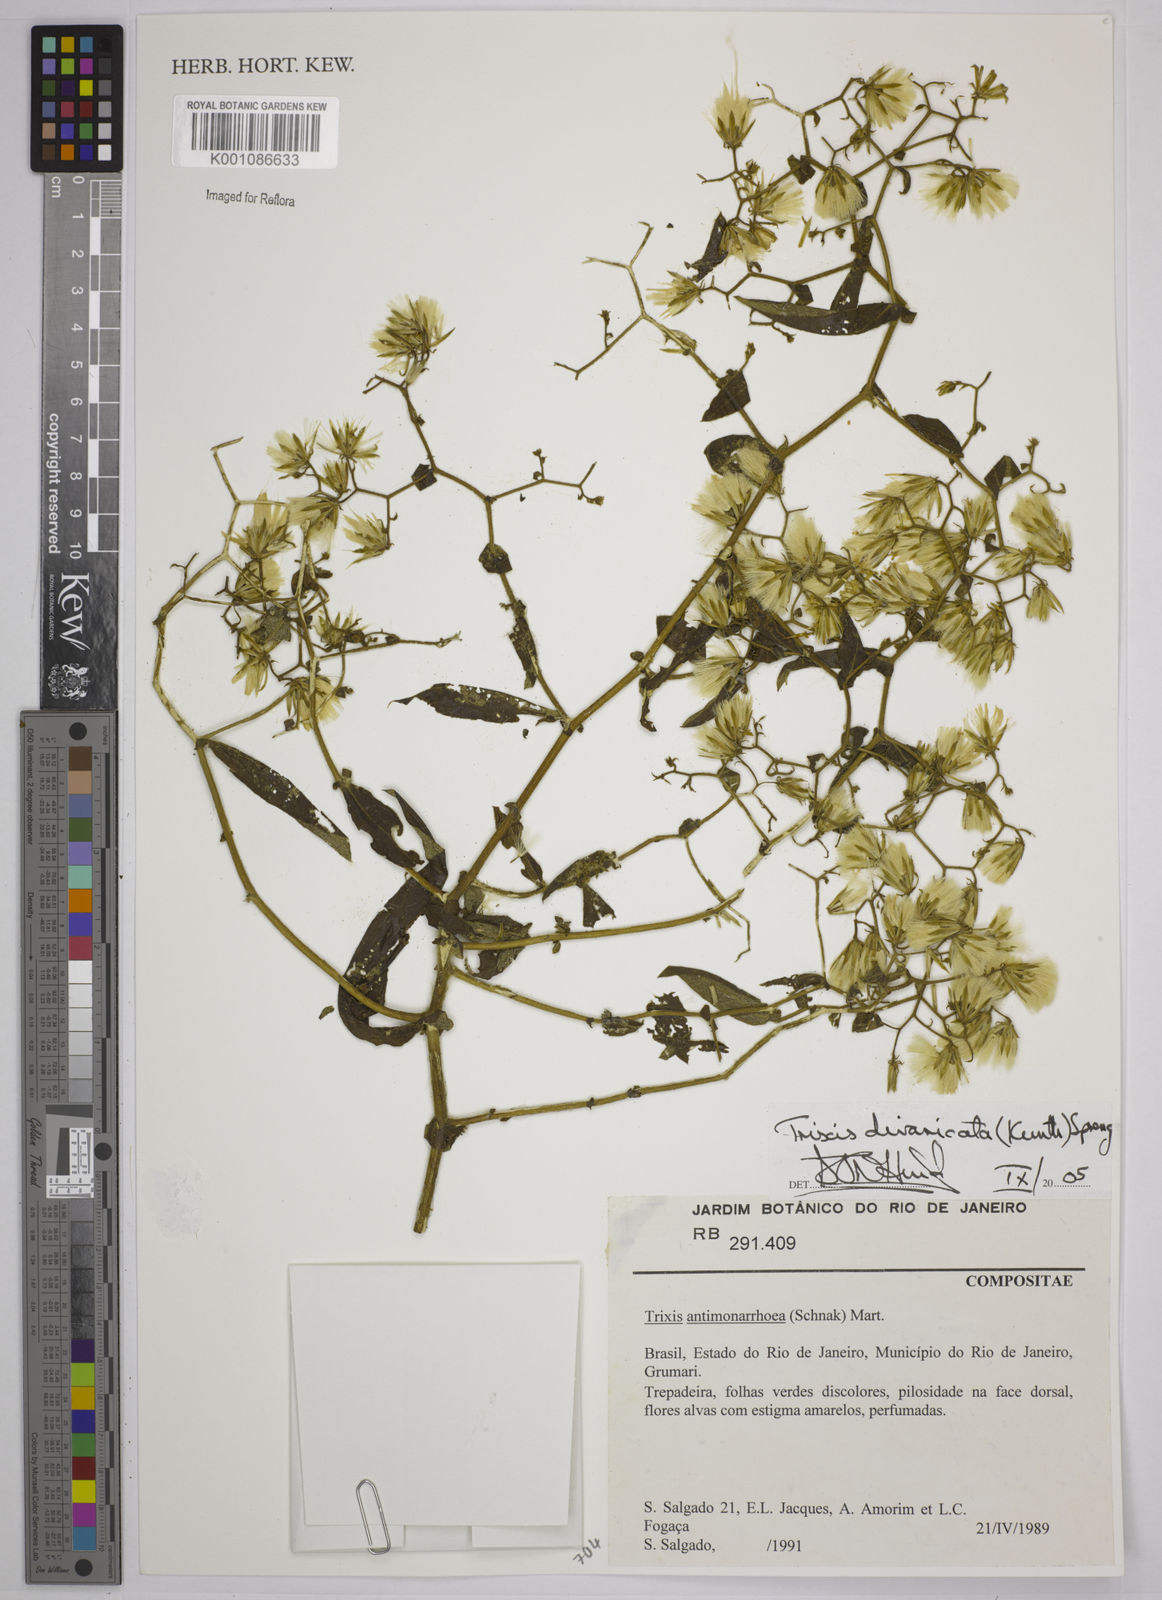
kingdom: Plantae
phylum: Tracheophyta
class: Magnoliopsida
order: Asterales
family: Asteraceae
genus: Trixis
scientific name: Trixis divaricata
